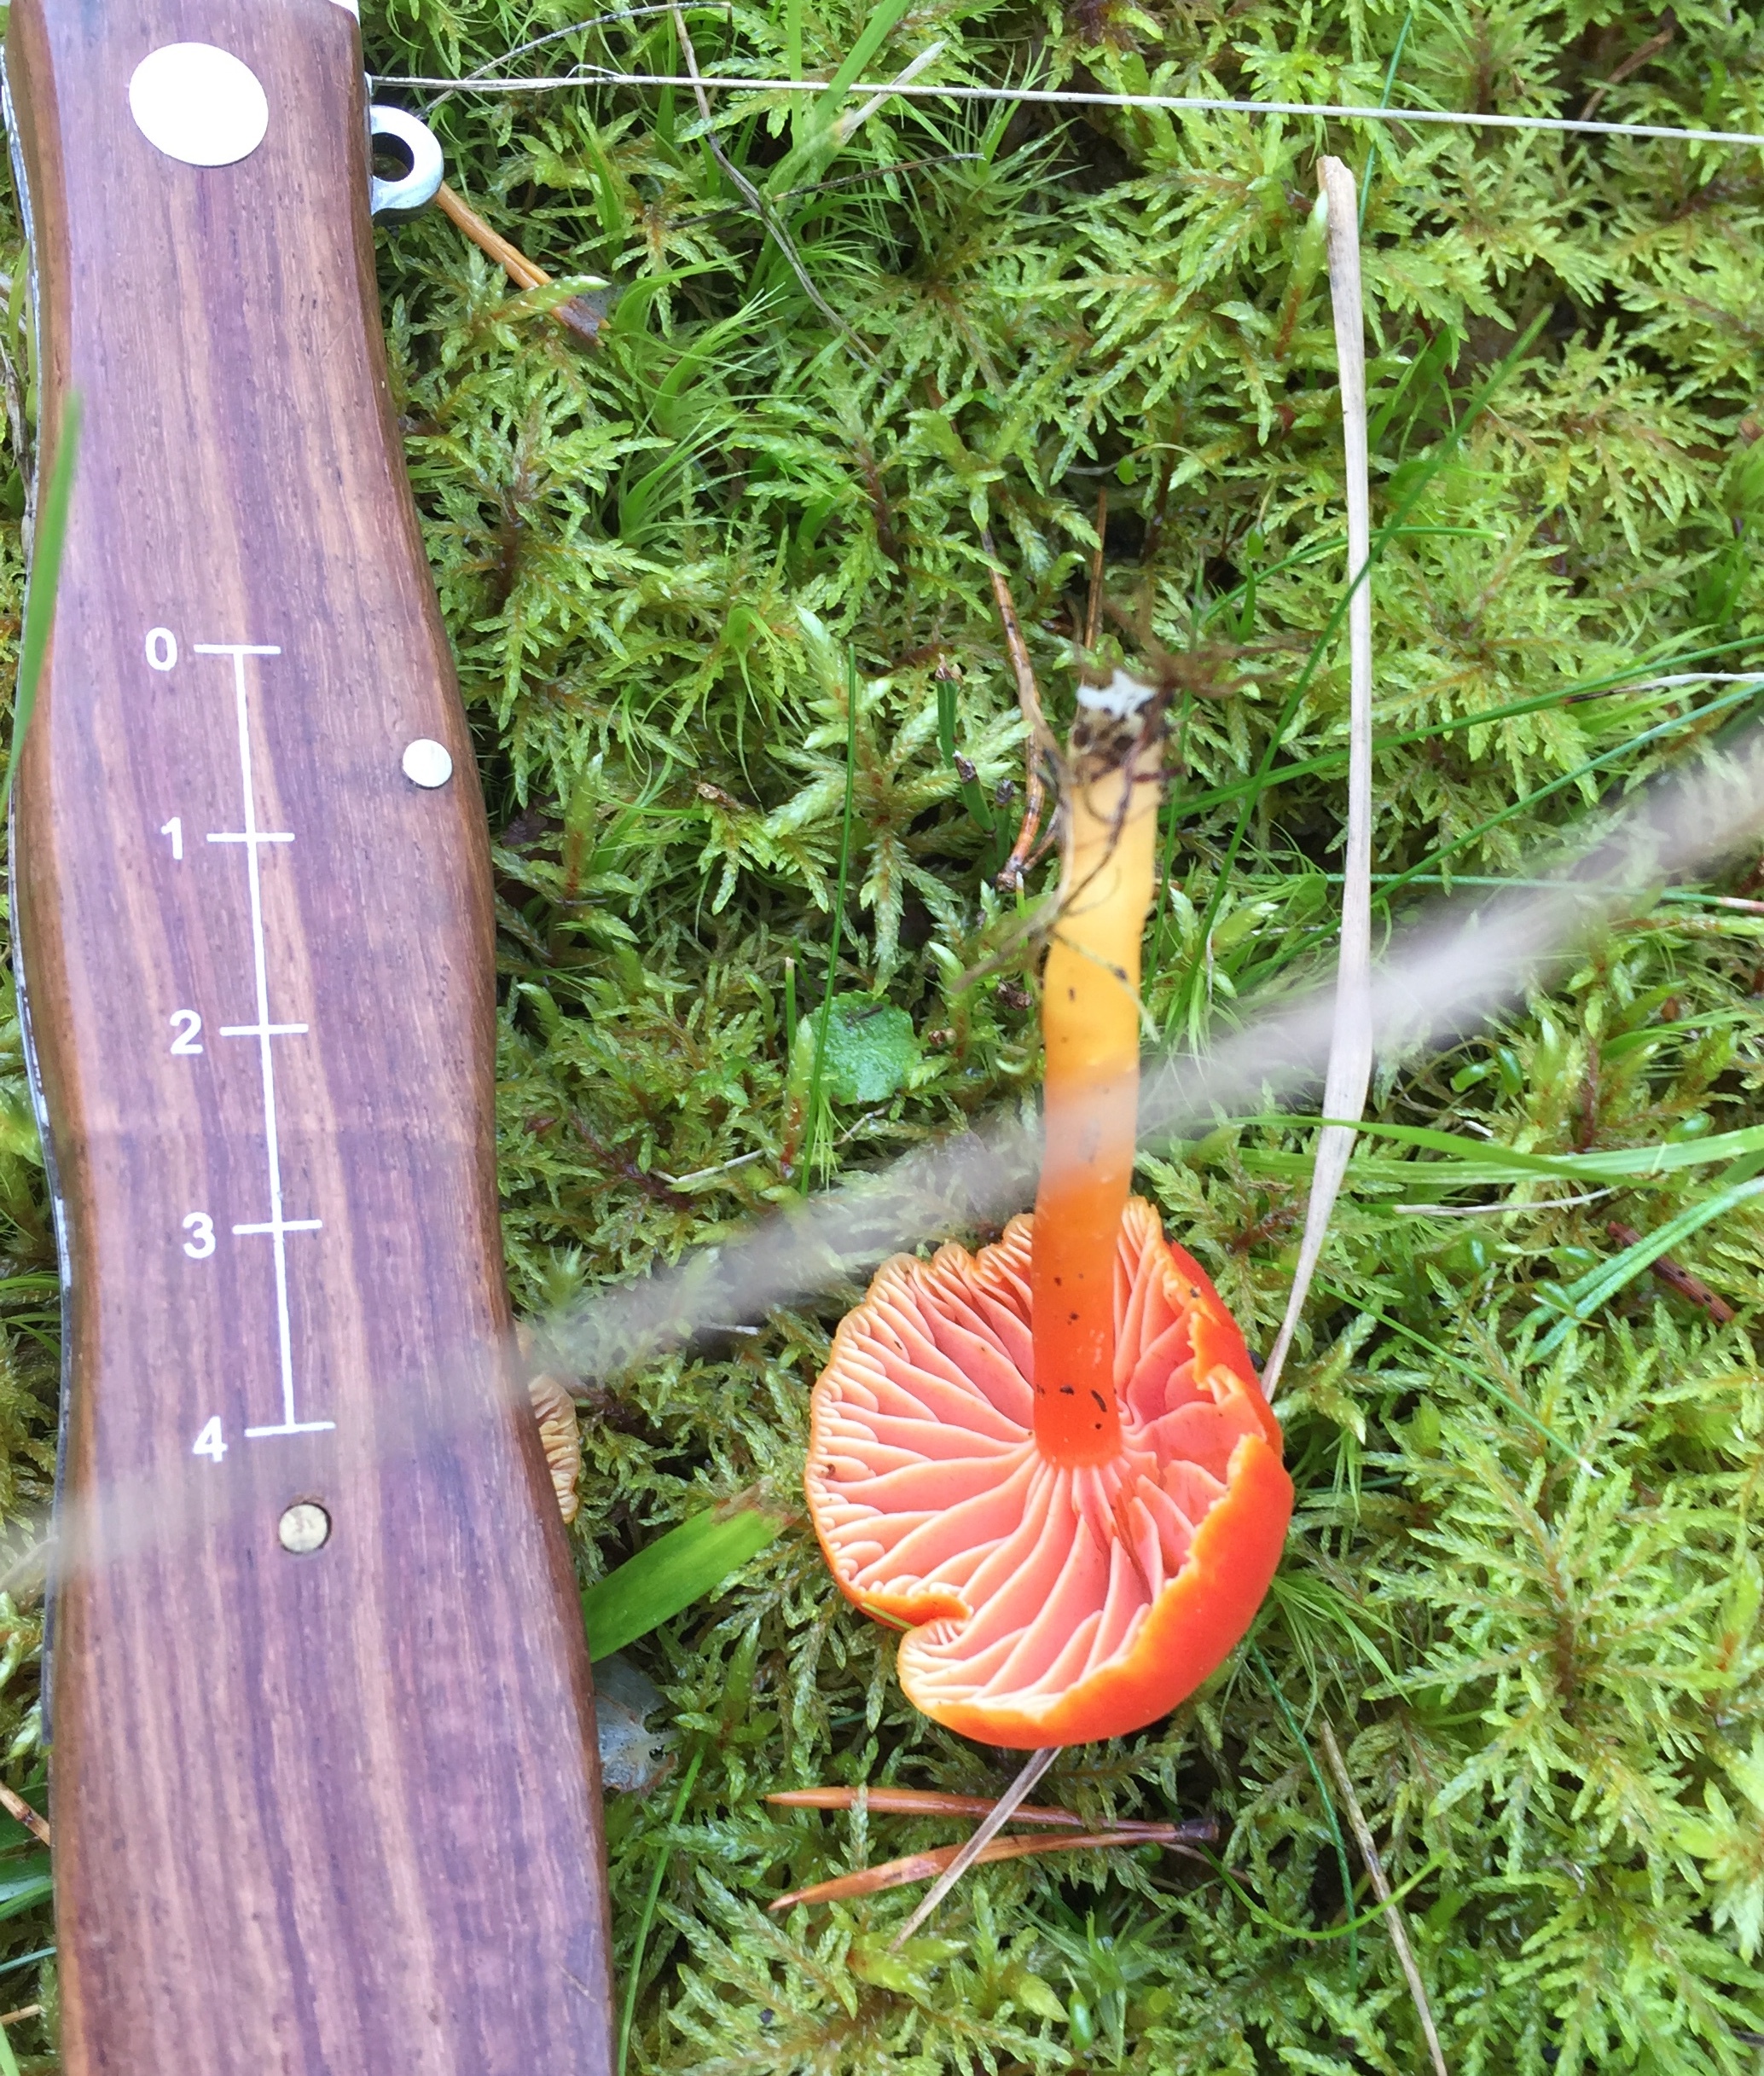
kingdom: Fungi
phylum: Basidiomycota
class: Agaricomycetes
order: Agaricales
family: Hygrophoraceae
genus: Hygrocybe
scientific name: Hygrocybe
